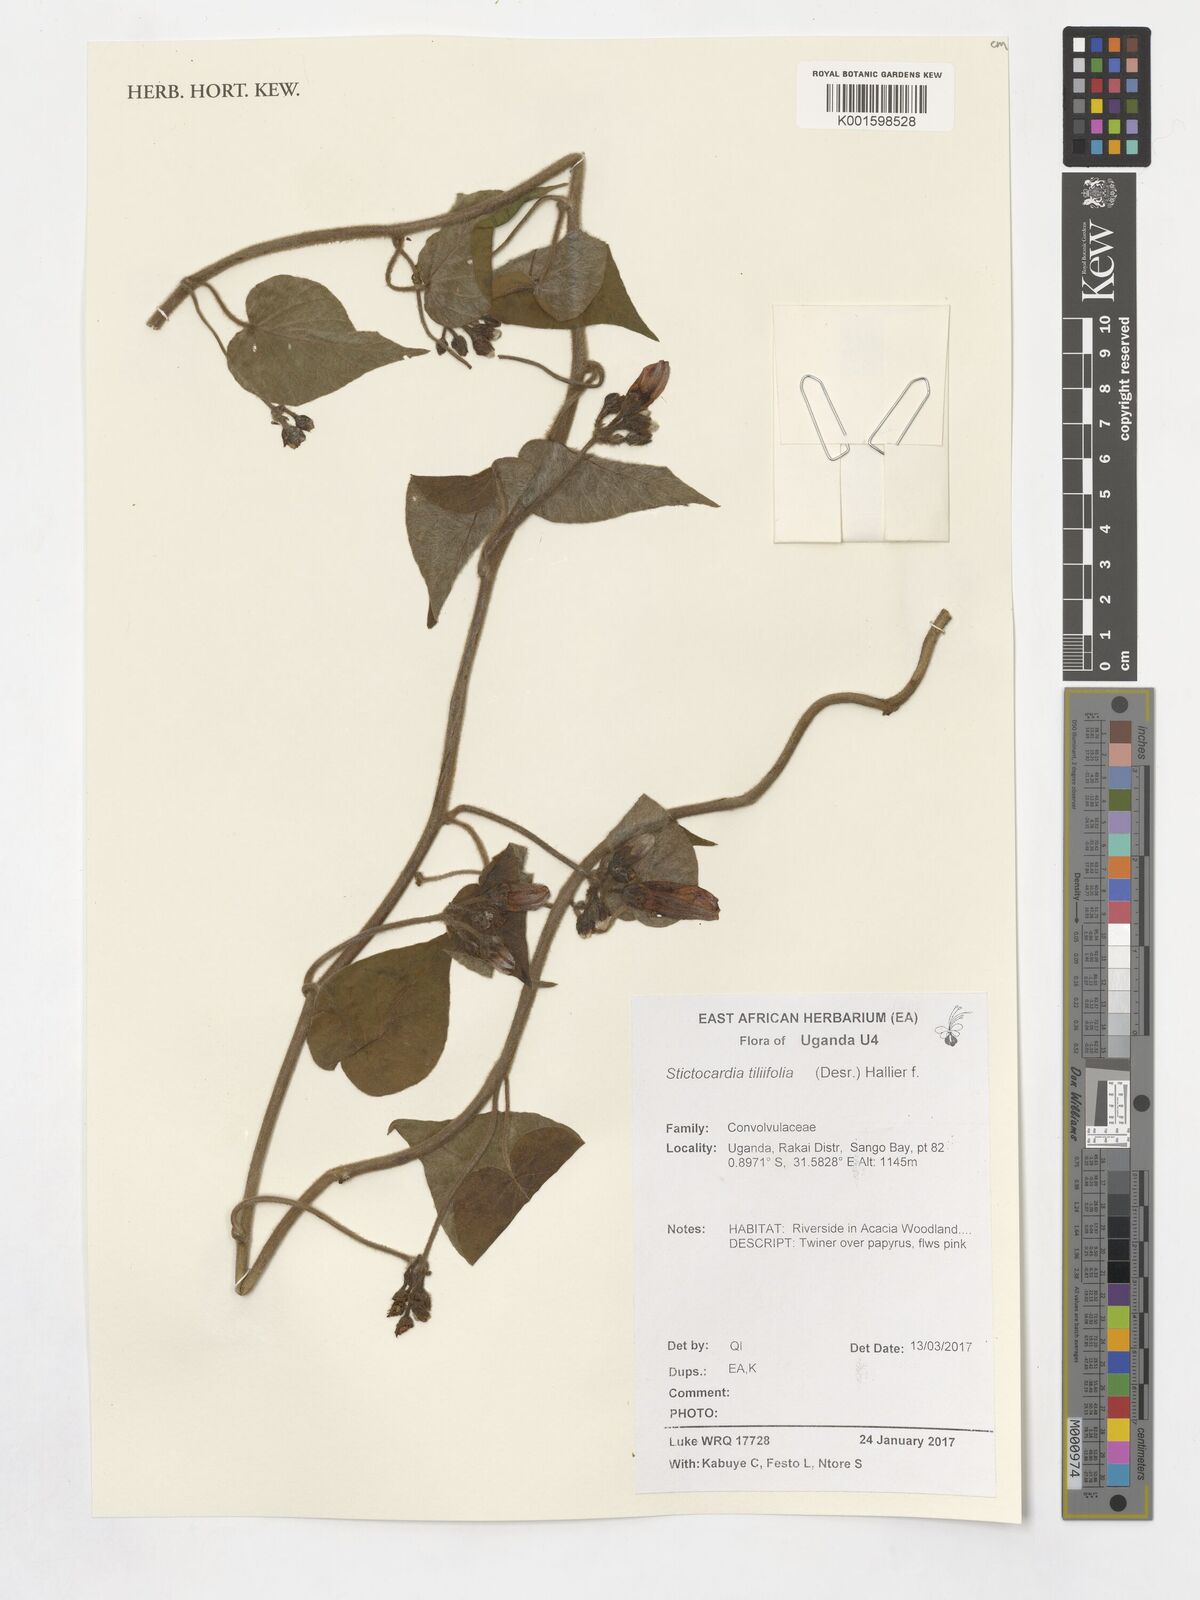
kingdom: Plantae
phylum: Tracheophyta
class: Magnoliopsida
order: Solanales
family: Convolvulaceae
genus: Stictocardia
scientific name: Stictocardia tiliifolia
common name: Spottedheart
